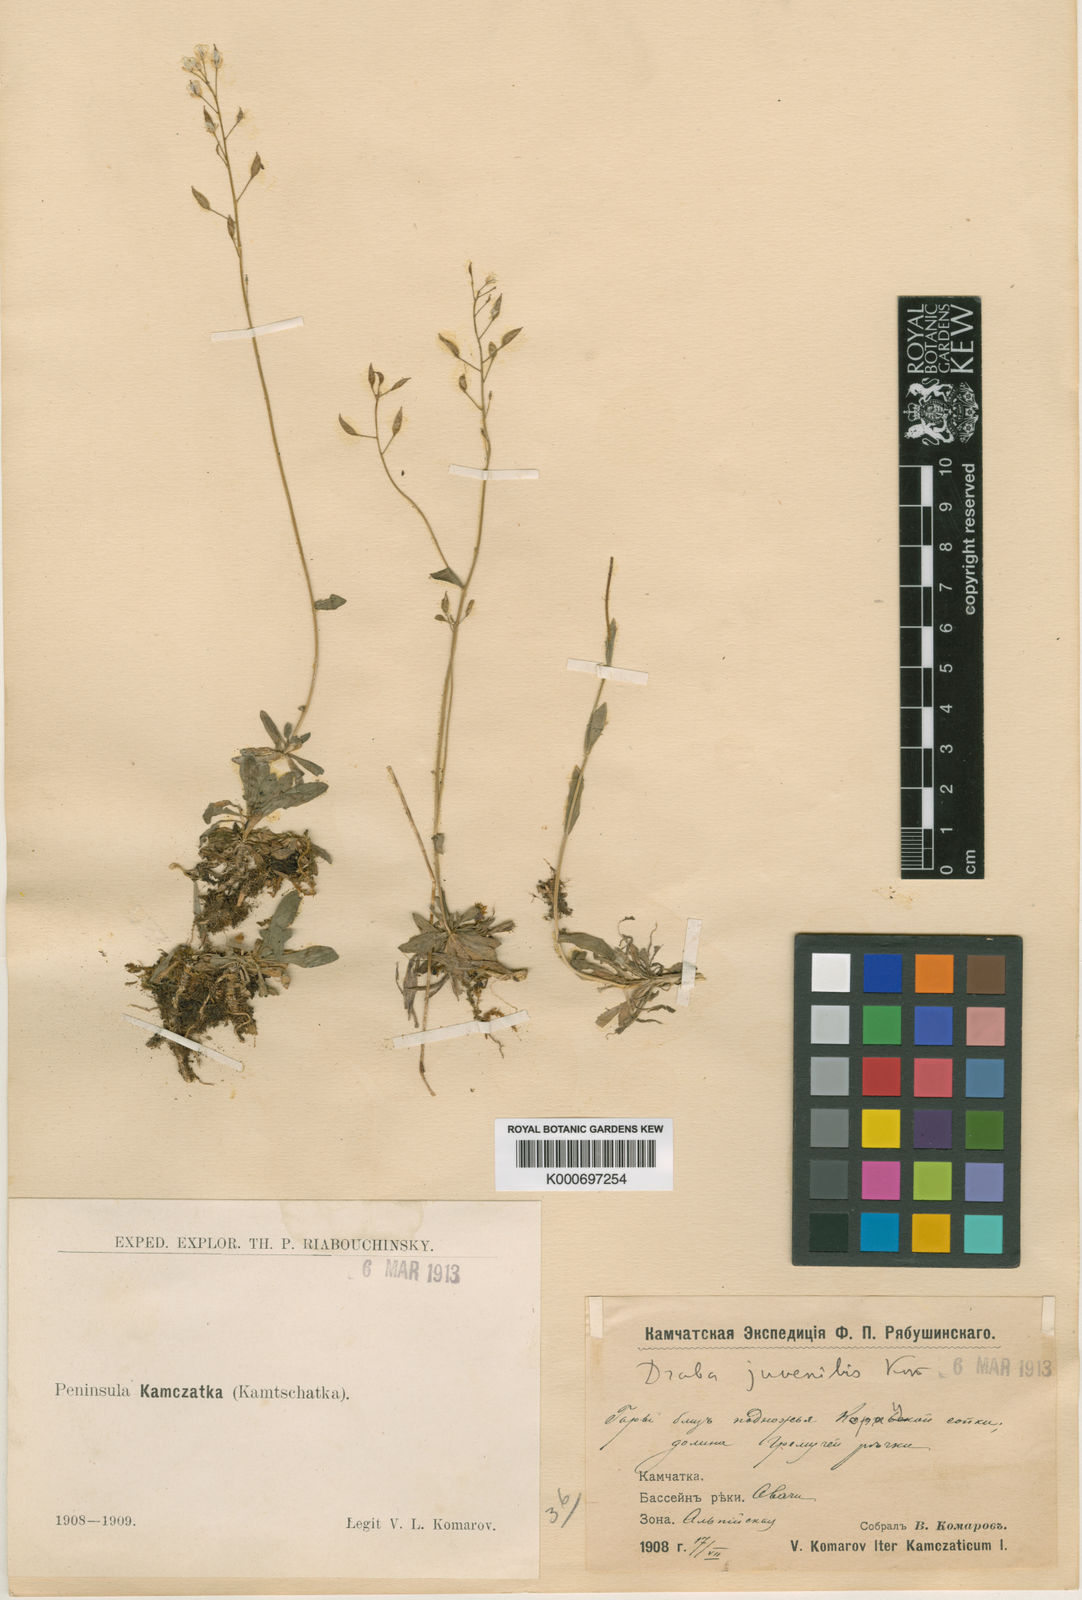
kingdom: Plantae
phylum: Tracheophyta
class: Magnoliopsida
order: Brassicales
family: Brassicaceae
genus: Draba
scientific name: Draba glabella
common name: Glaucous draba
